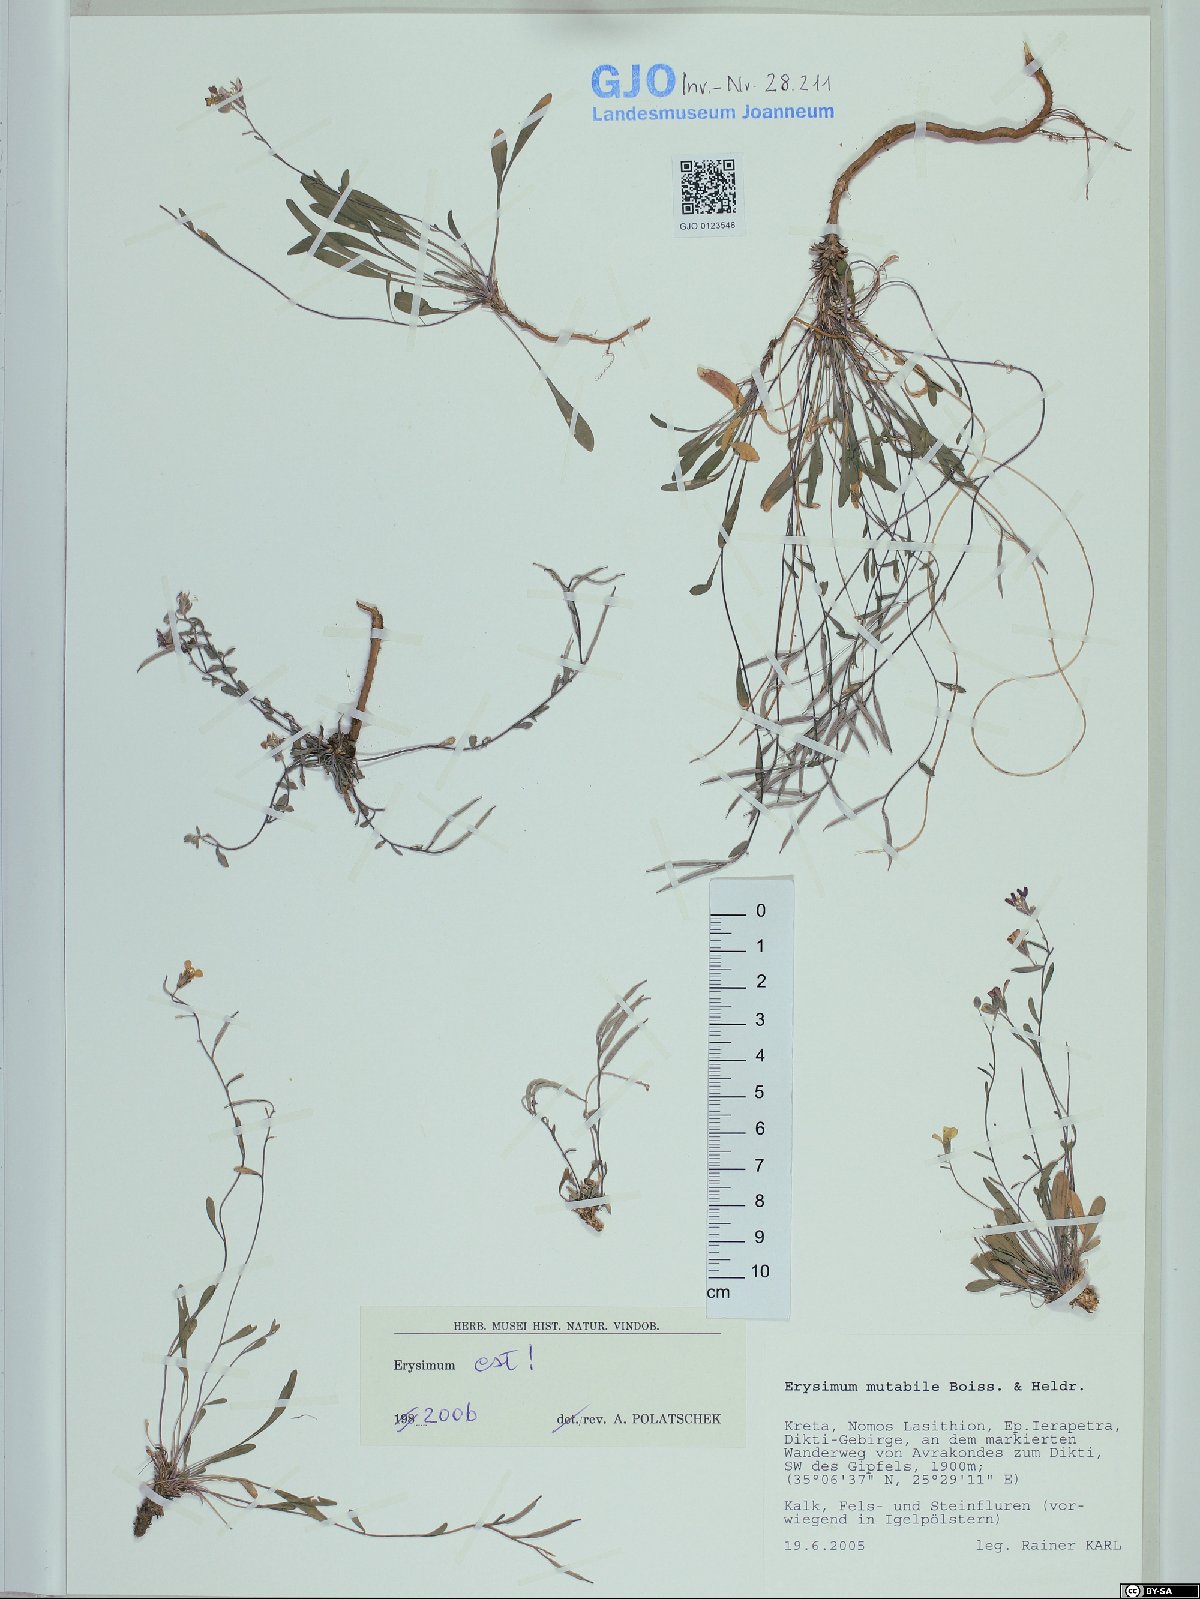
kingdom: Plantae
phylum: Tracheophyta
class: Magnoliopsida
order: Brassicales
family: Brassicaceae
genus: Erysimum
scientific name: Erysimum mutabile
